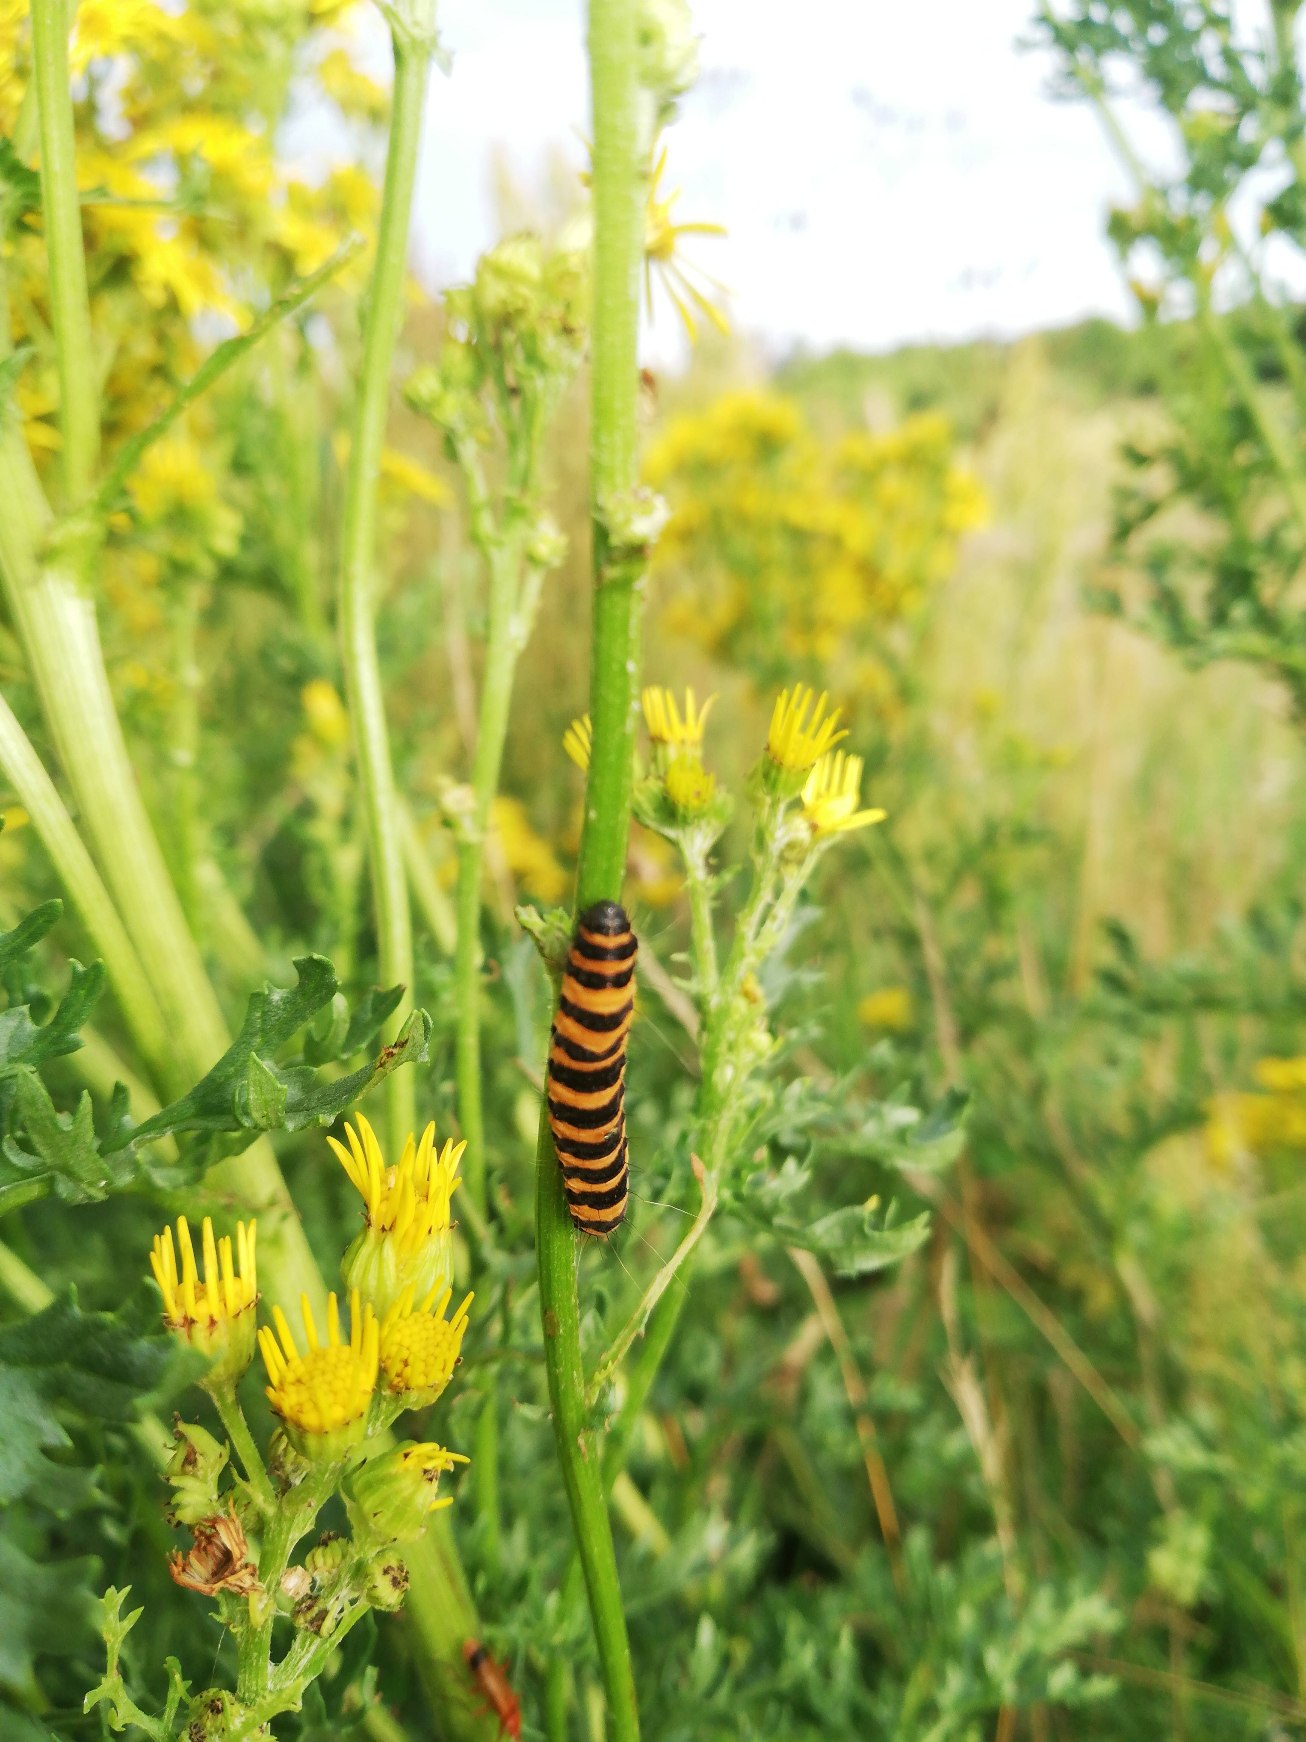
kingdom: Animalia
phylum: Arthropoda
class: Insecta
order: Lepidoptera
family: Erebidae
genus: Tyria
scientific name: Tyria jacobaeae
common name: Blodplet
